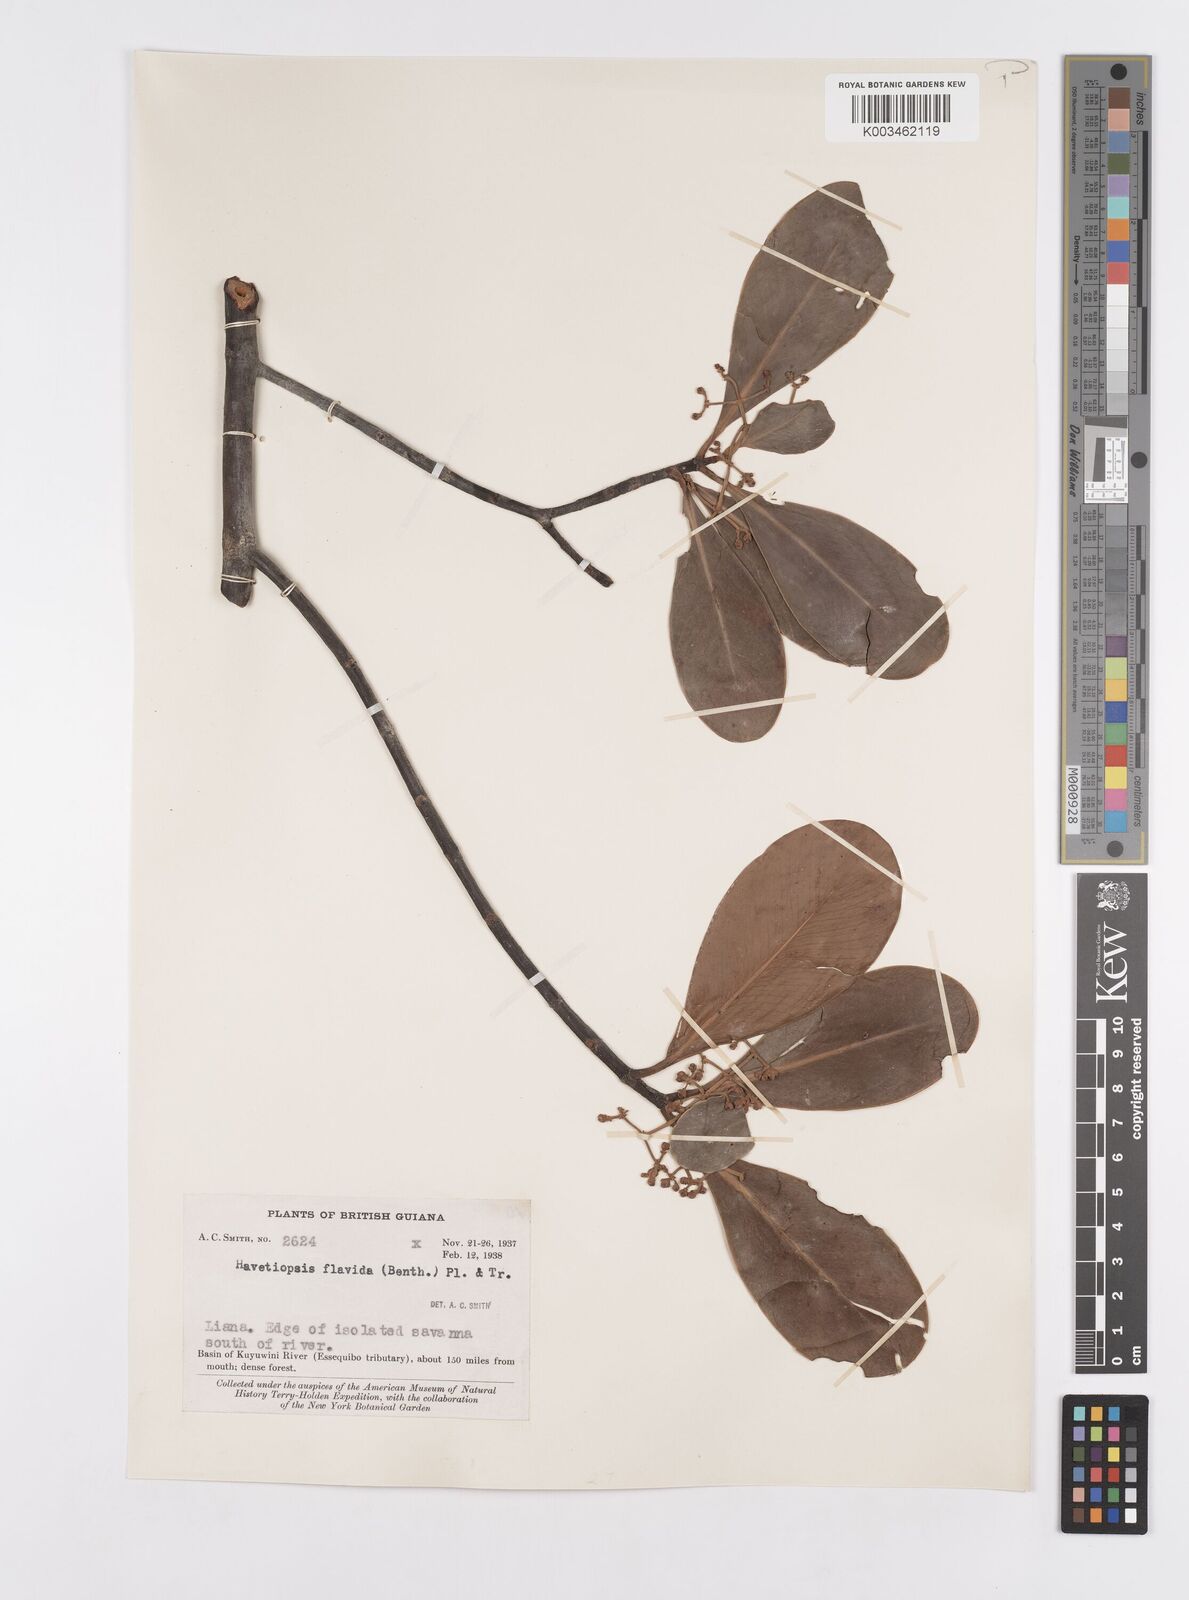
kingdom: Plantae
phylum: Tracheophyta
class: Magnoliopsida
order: Malpighiales
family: Clusiaceae
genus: Clusia
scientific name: Clusia flavida
